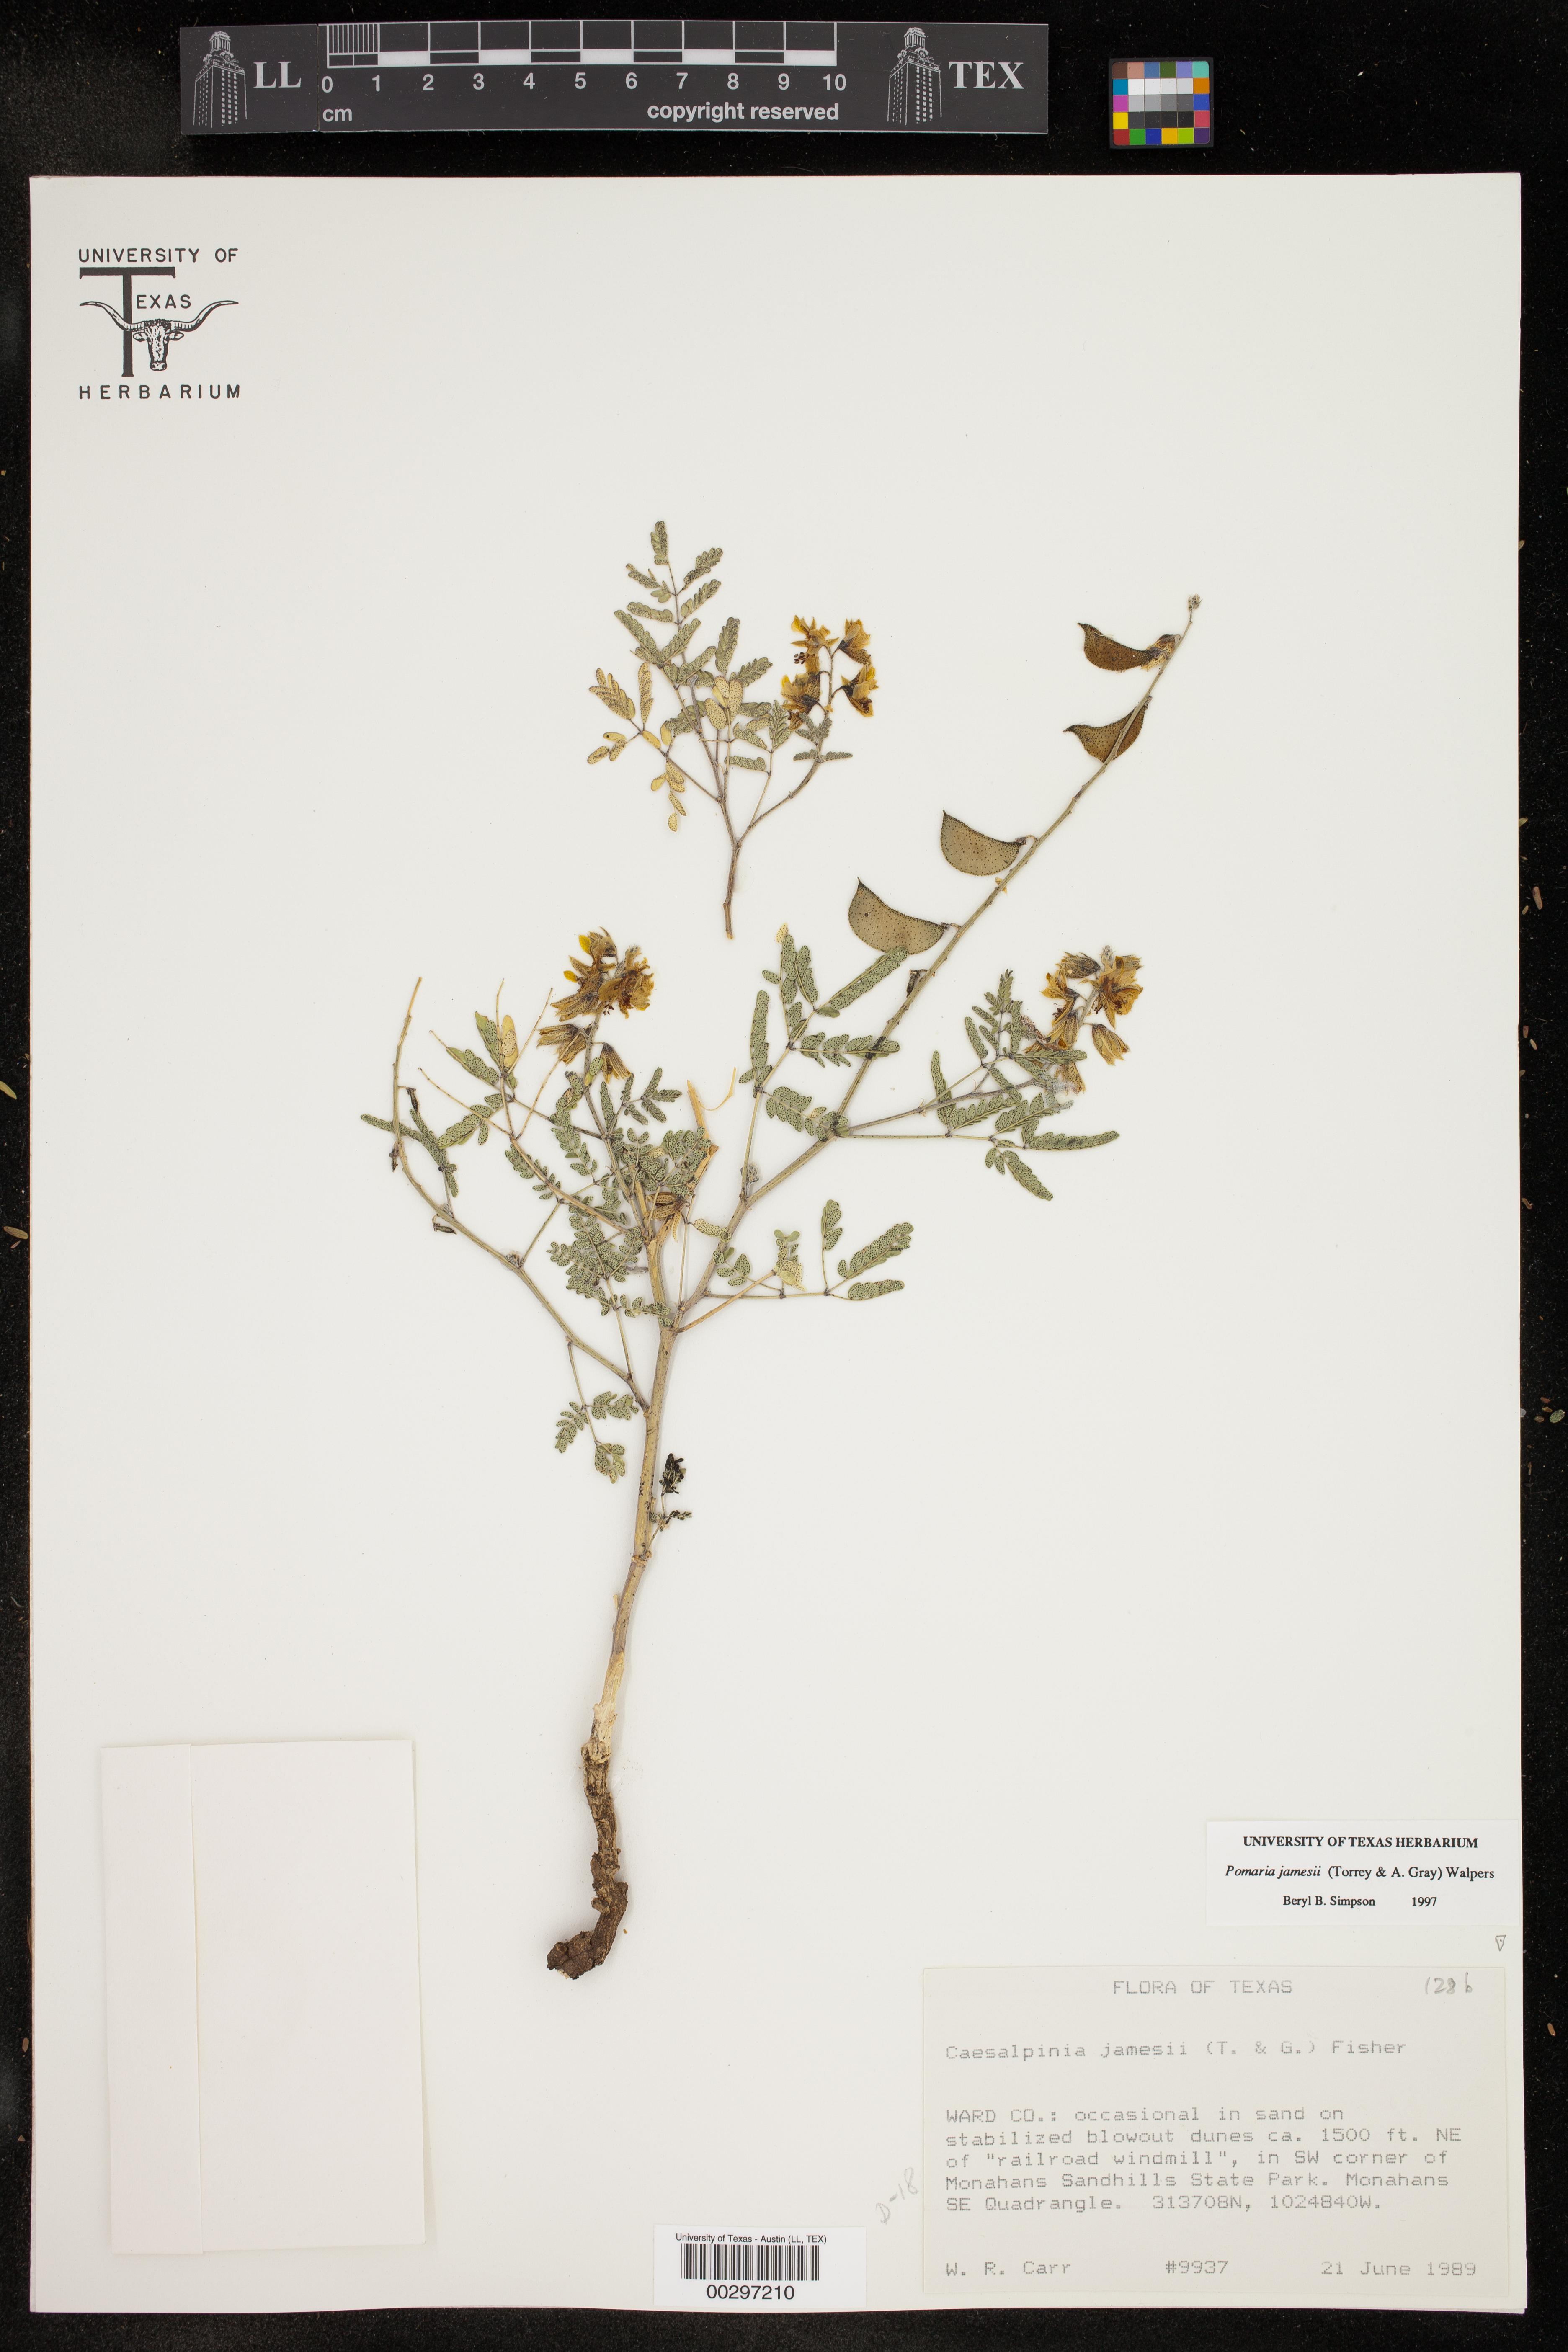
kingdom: Plantae
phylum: Tracheophyta
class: Magnoliopsida
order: Fabales
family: Fabaceae
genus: Pomaria
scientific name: Pomaria jamesii
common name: James' caesalpinia
